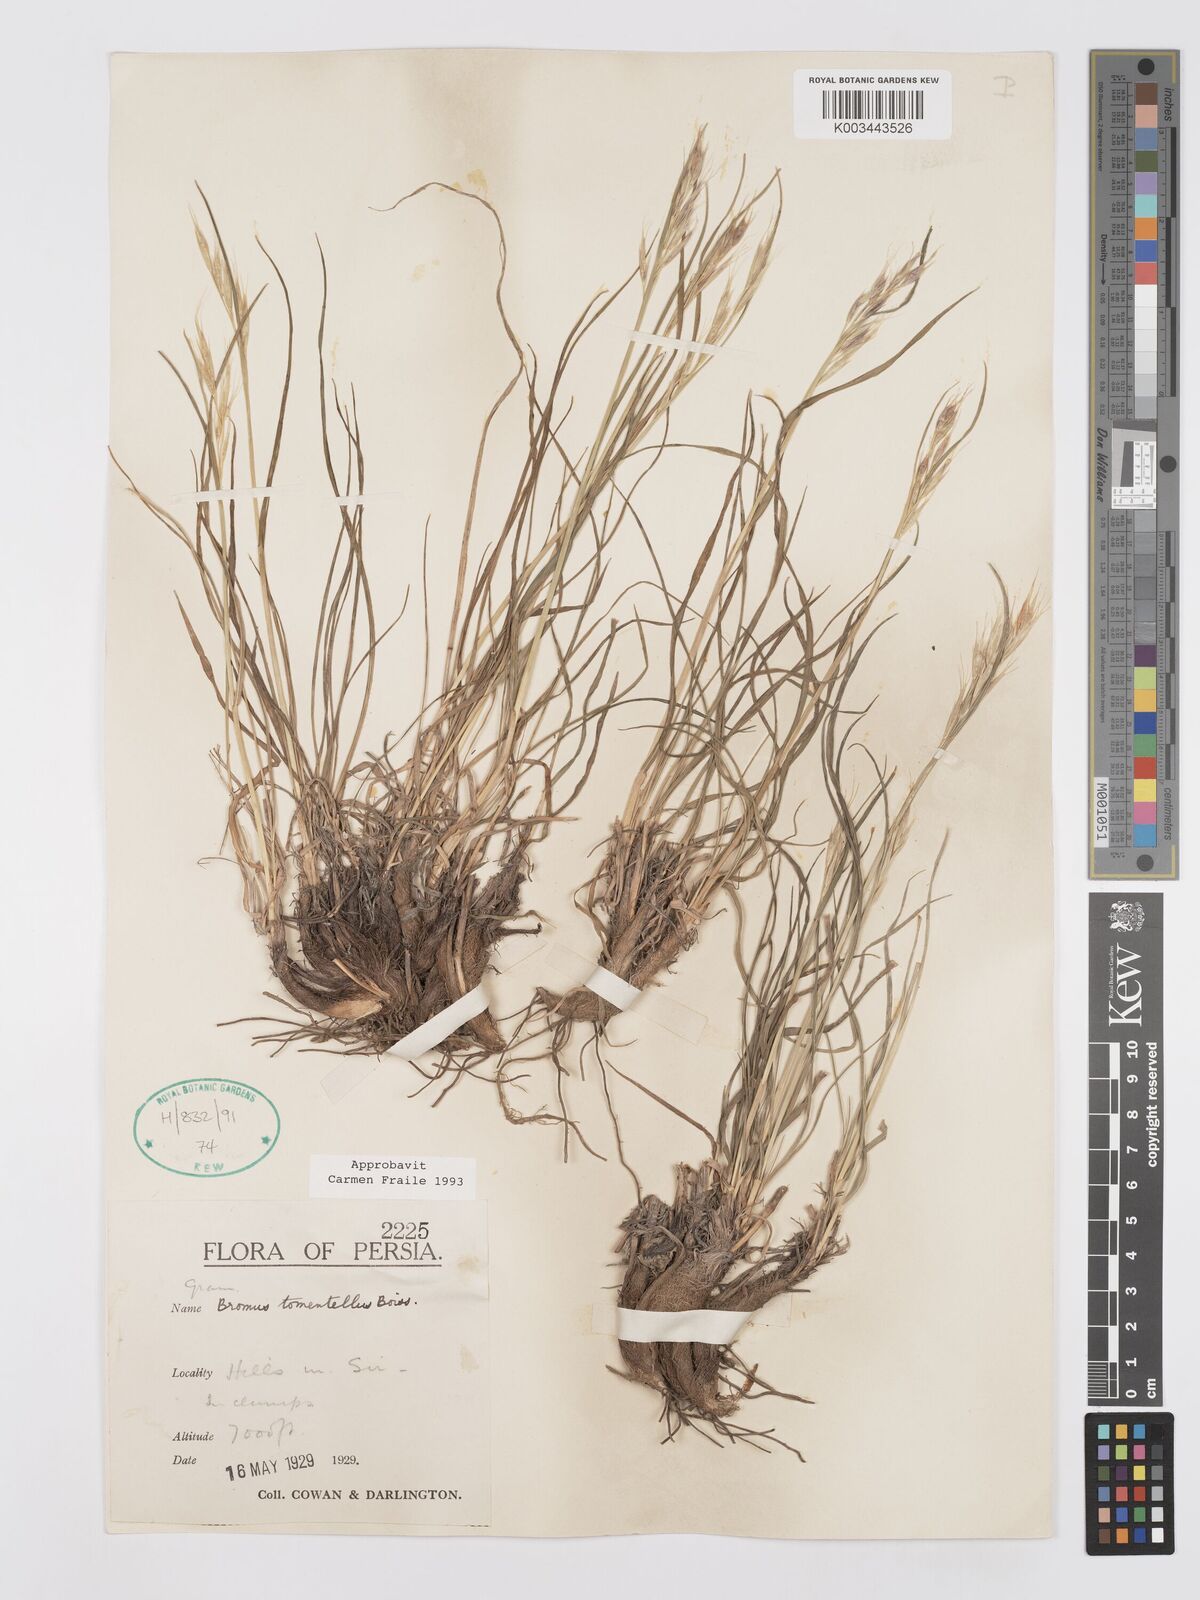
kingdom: Plantae
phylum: Tracheophyta
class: Liliopsida
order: Poales
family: Poaceae
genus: Bromus
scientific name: Bromus tomentellus
